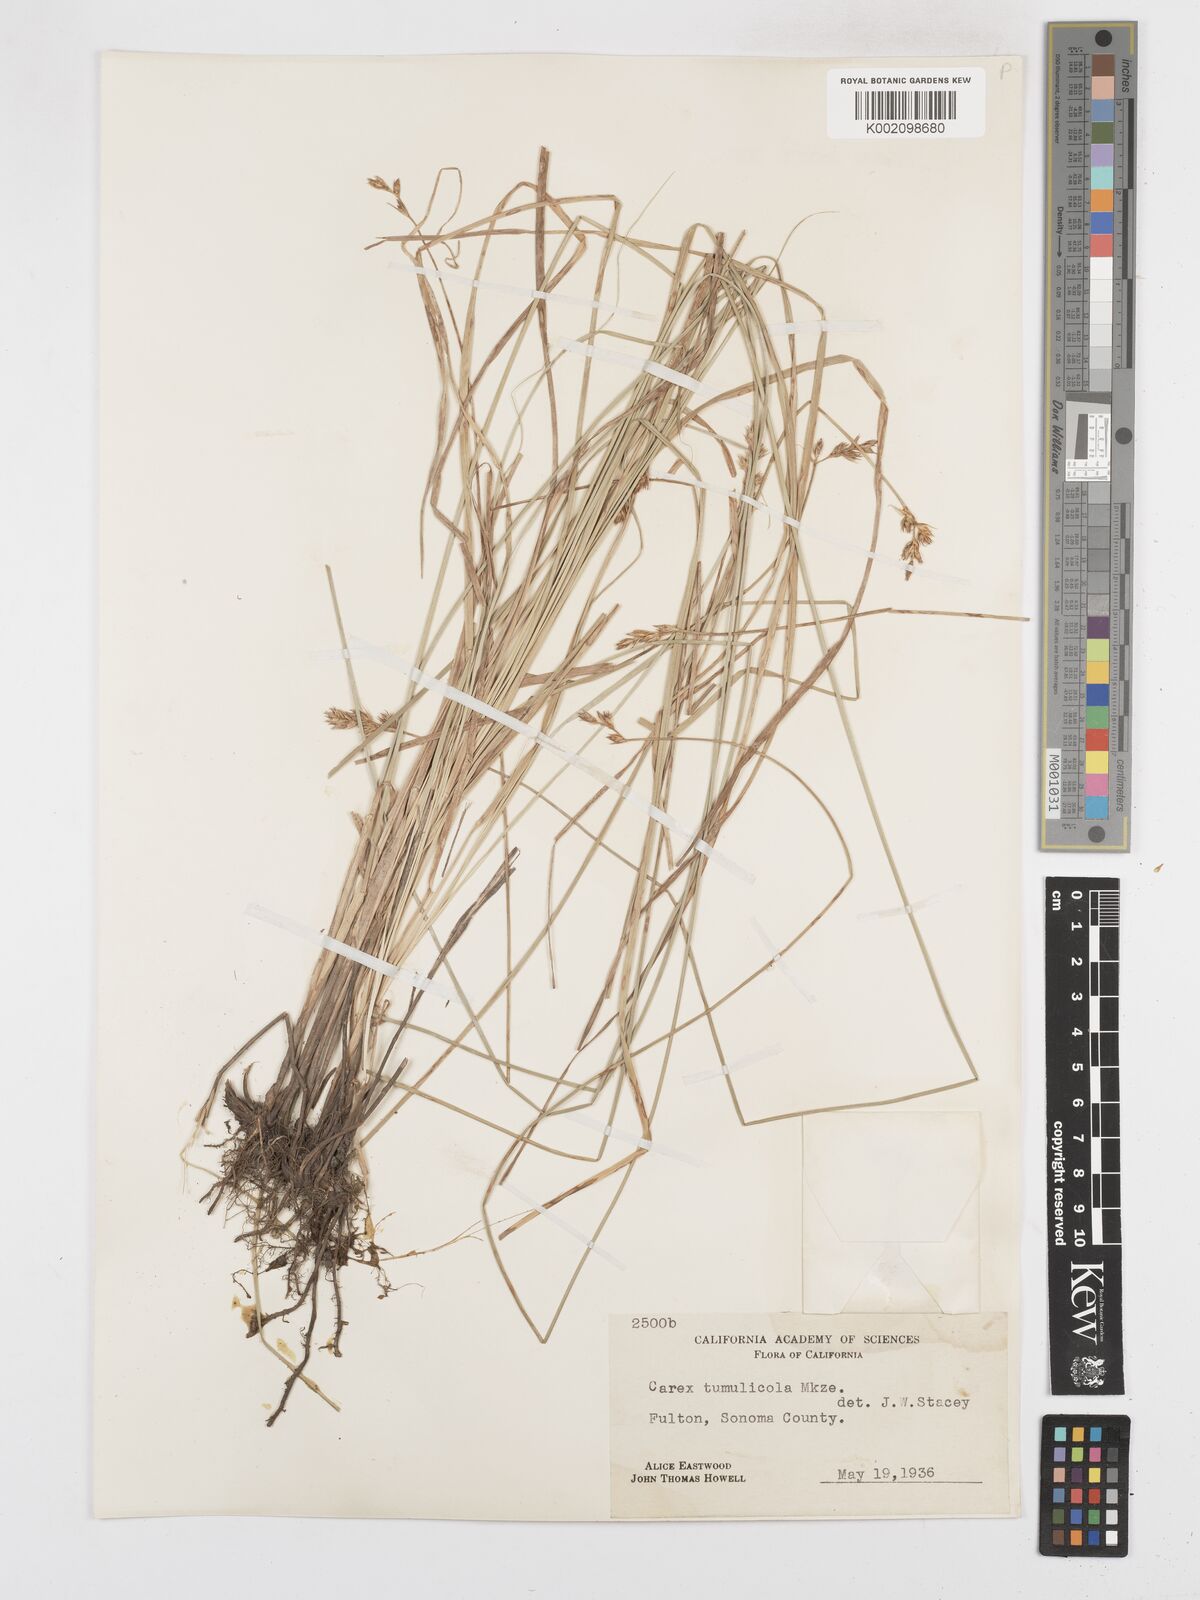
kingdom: Plantae
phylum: Tracheophyta
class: Liliopsida
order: Poales
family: Cyperaceae
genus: Carex
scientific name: Carex tumulicola
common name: Splitawn sedge
